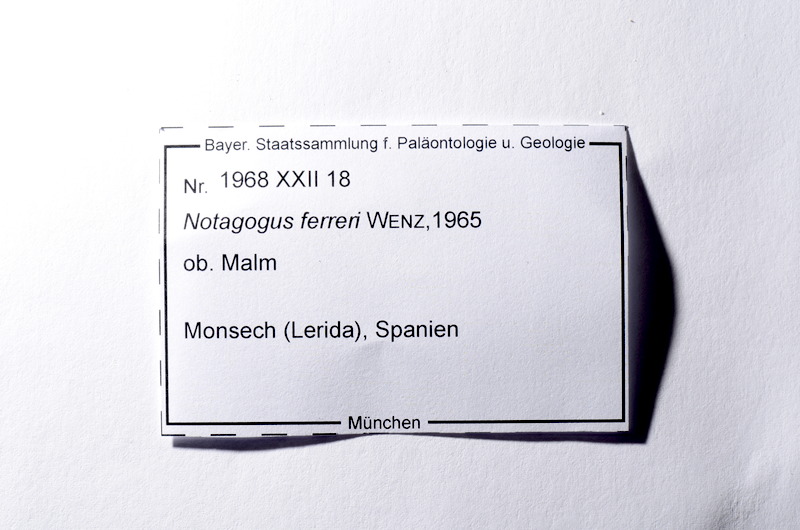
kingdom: Animalia
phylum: Chordata
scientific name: Chordata
